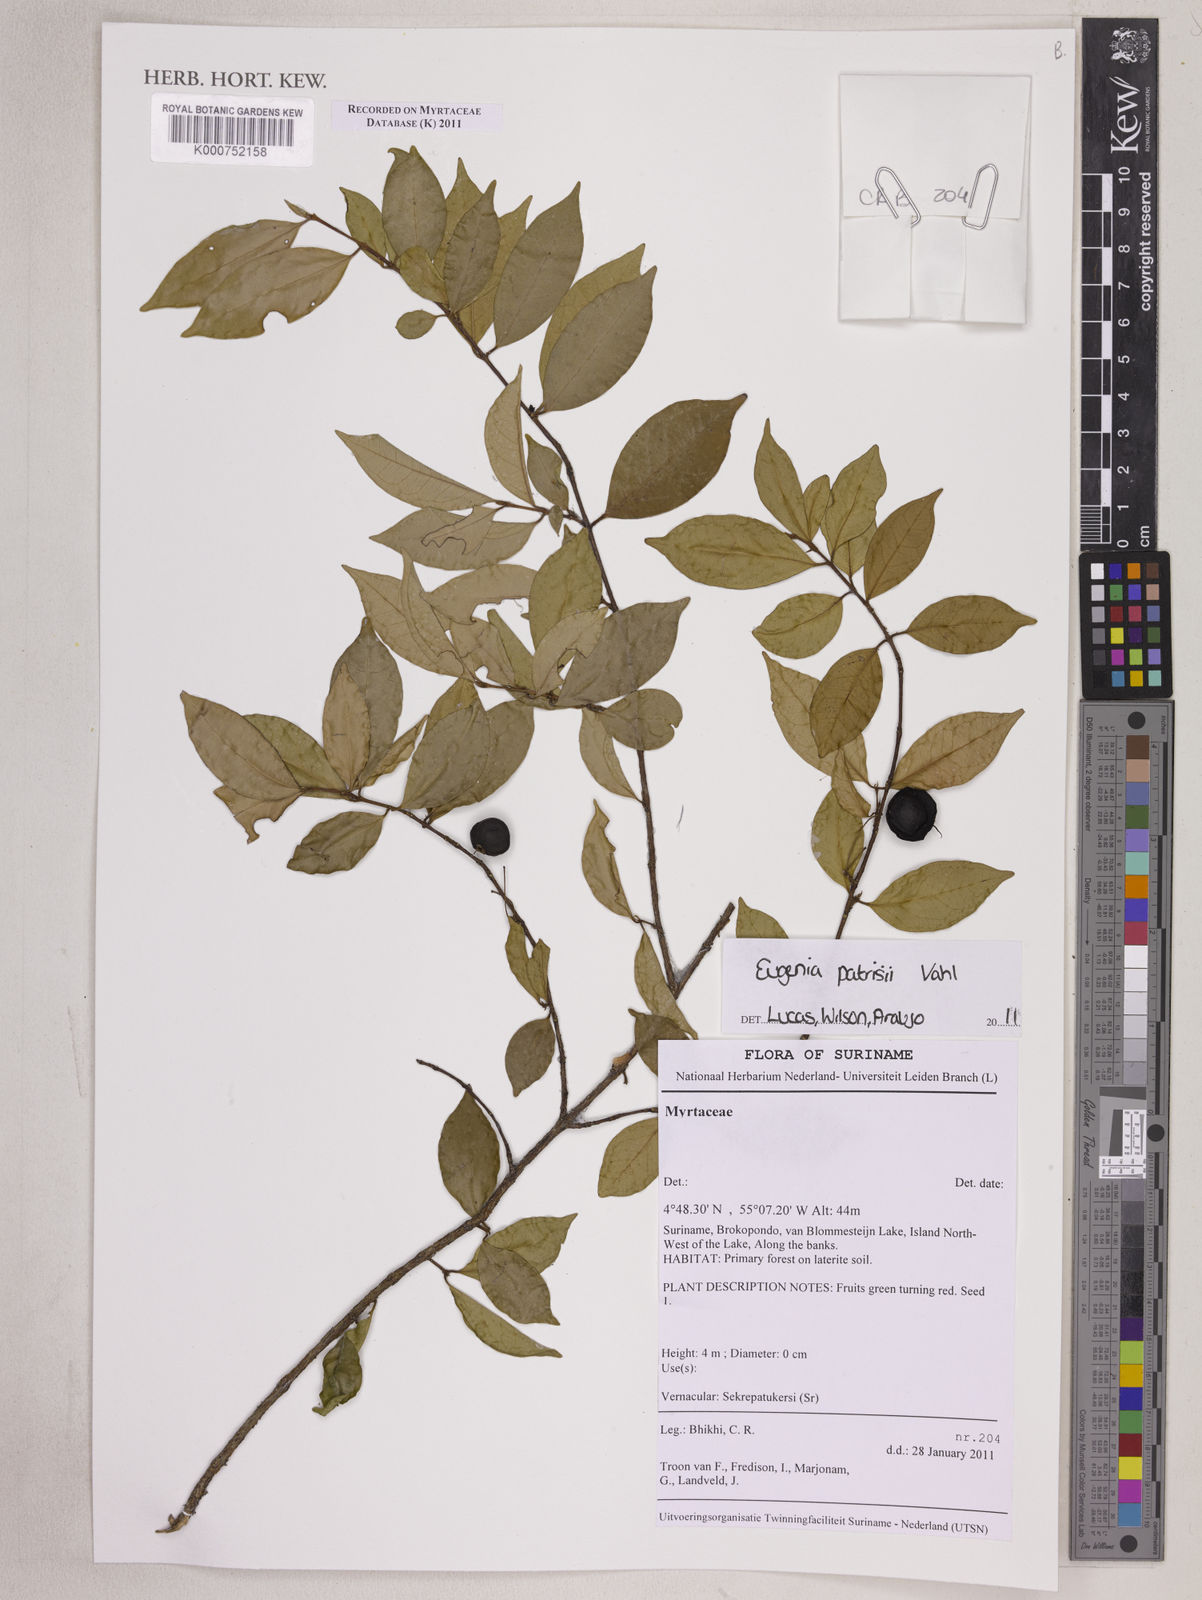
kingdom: Plantae
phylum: Tracheophyta
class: Magnoliopsida
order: Myrtales
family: Myrtaceae
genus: Eugenia
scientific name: Eugenia patrisii
